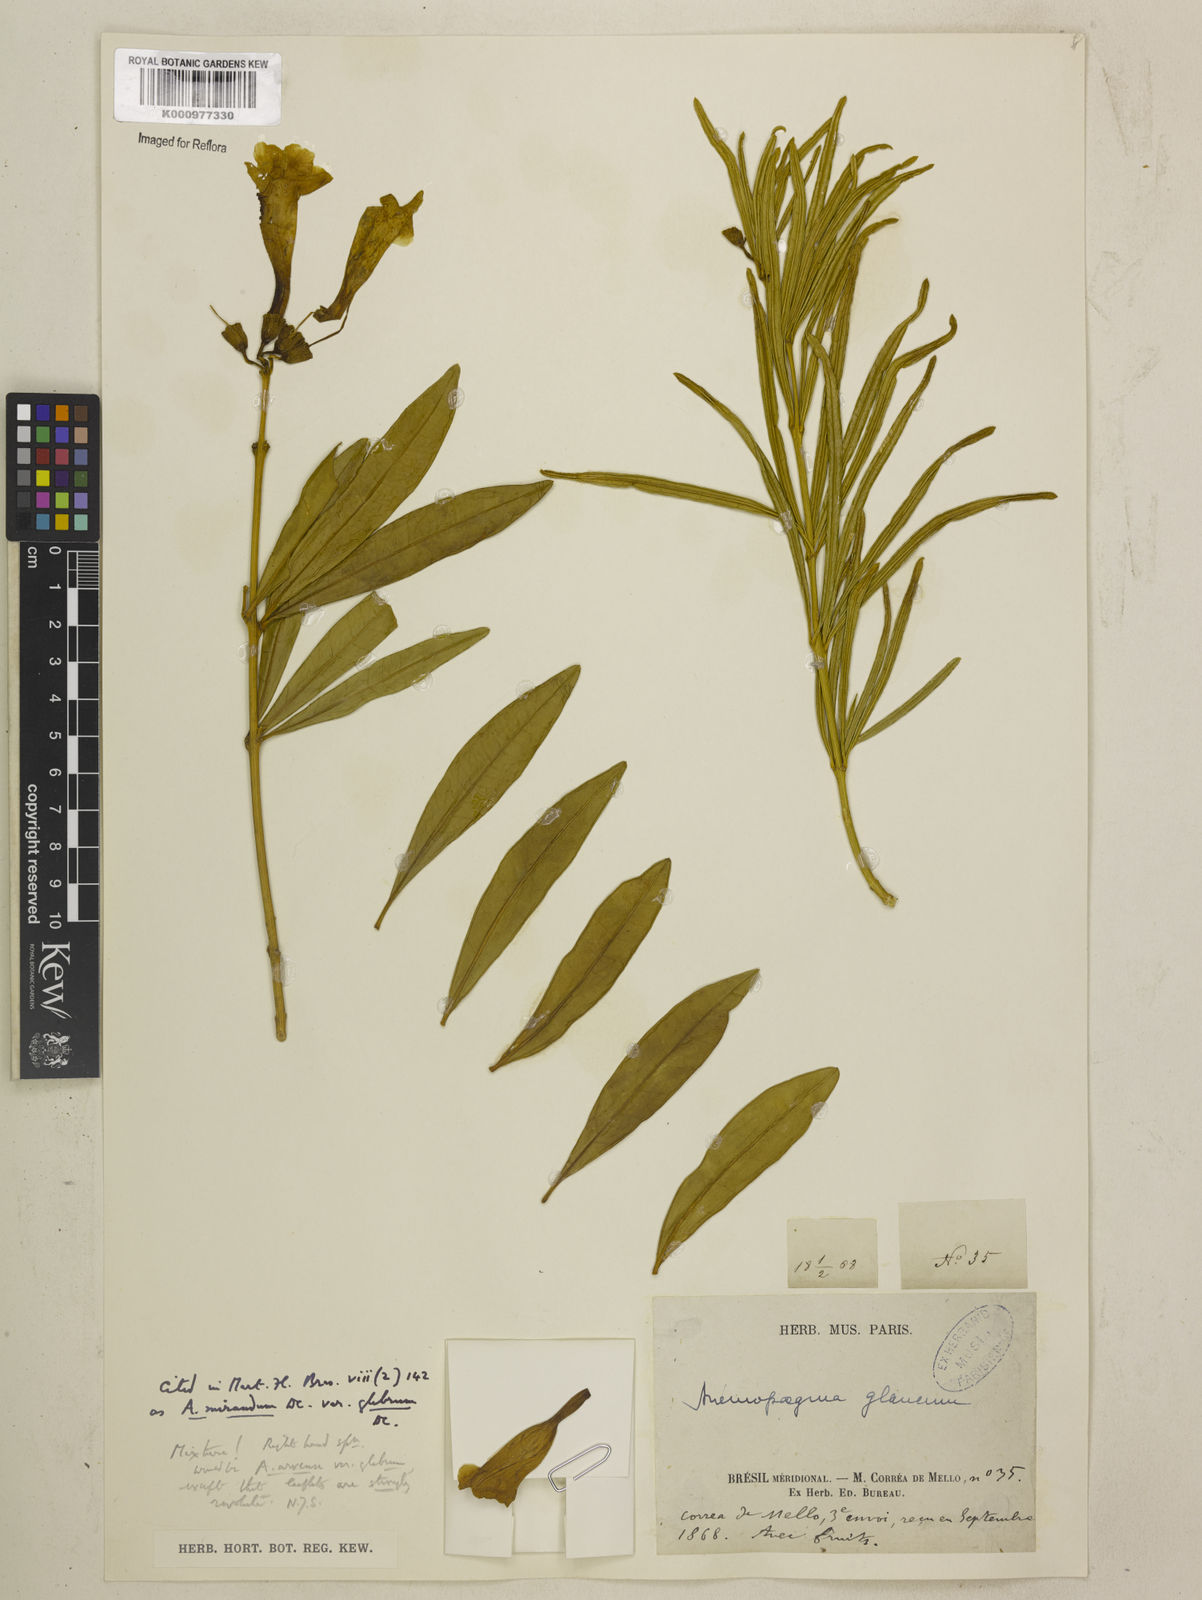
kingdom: Plantae
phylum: Tracheophyta
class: Magnoliopsida
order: Lamiales
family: Bignoniaceae
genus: Anemopaegma
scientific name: Anemopaegma arvense
